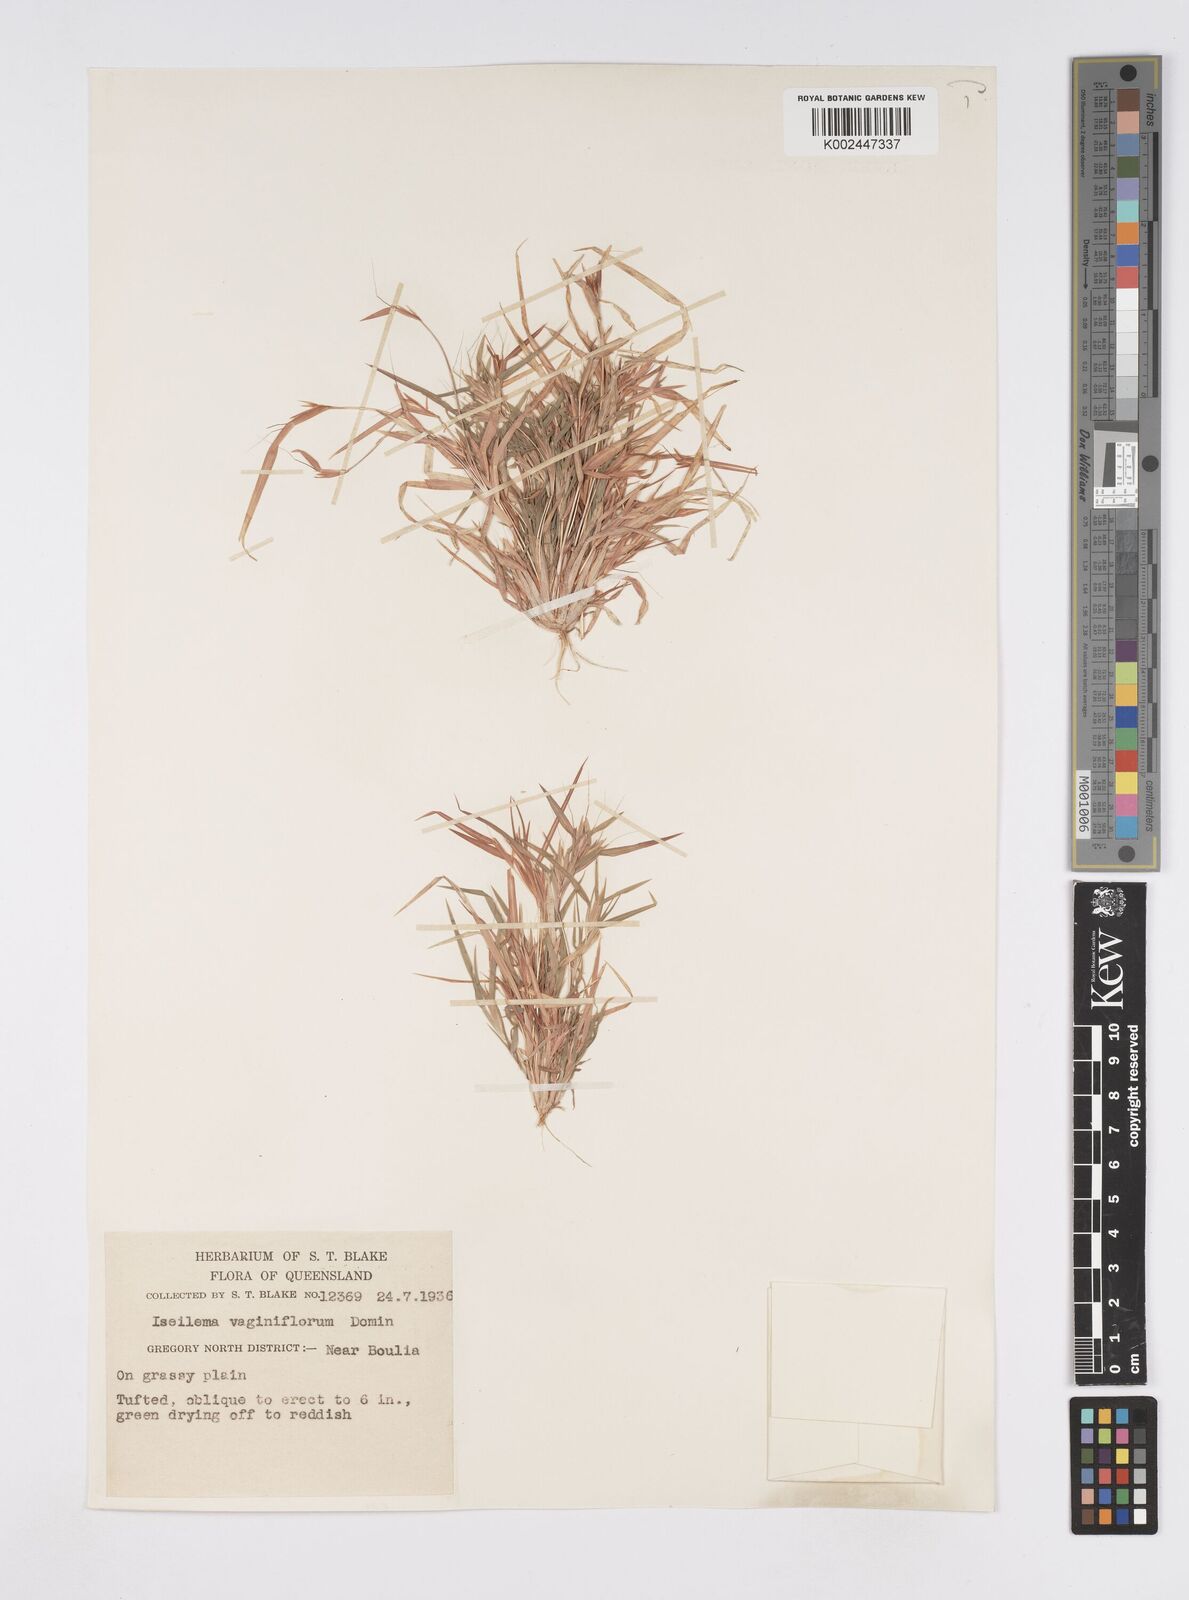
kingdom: Plantae
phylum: Tracheophyta
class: Liliopsida
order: Poales
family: Poaceae
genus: Iseilema
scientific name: Iseilema vaginiflorum
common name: Red flinders grass
